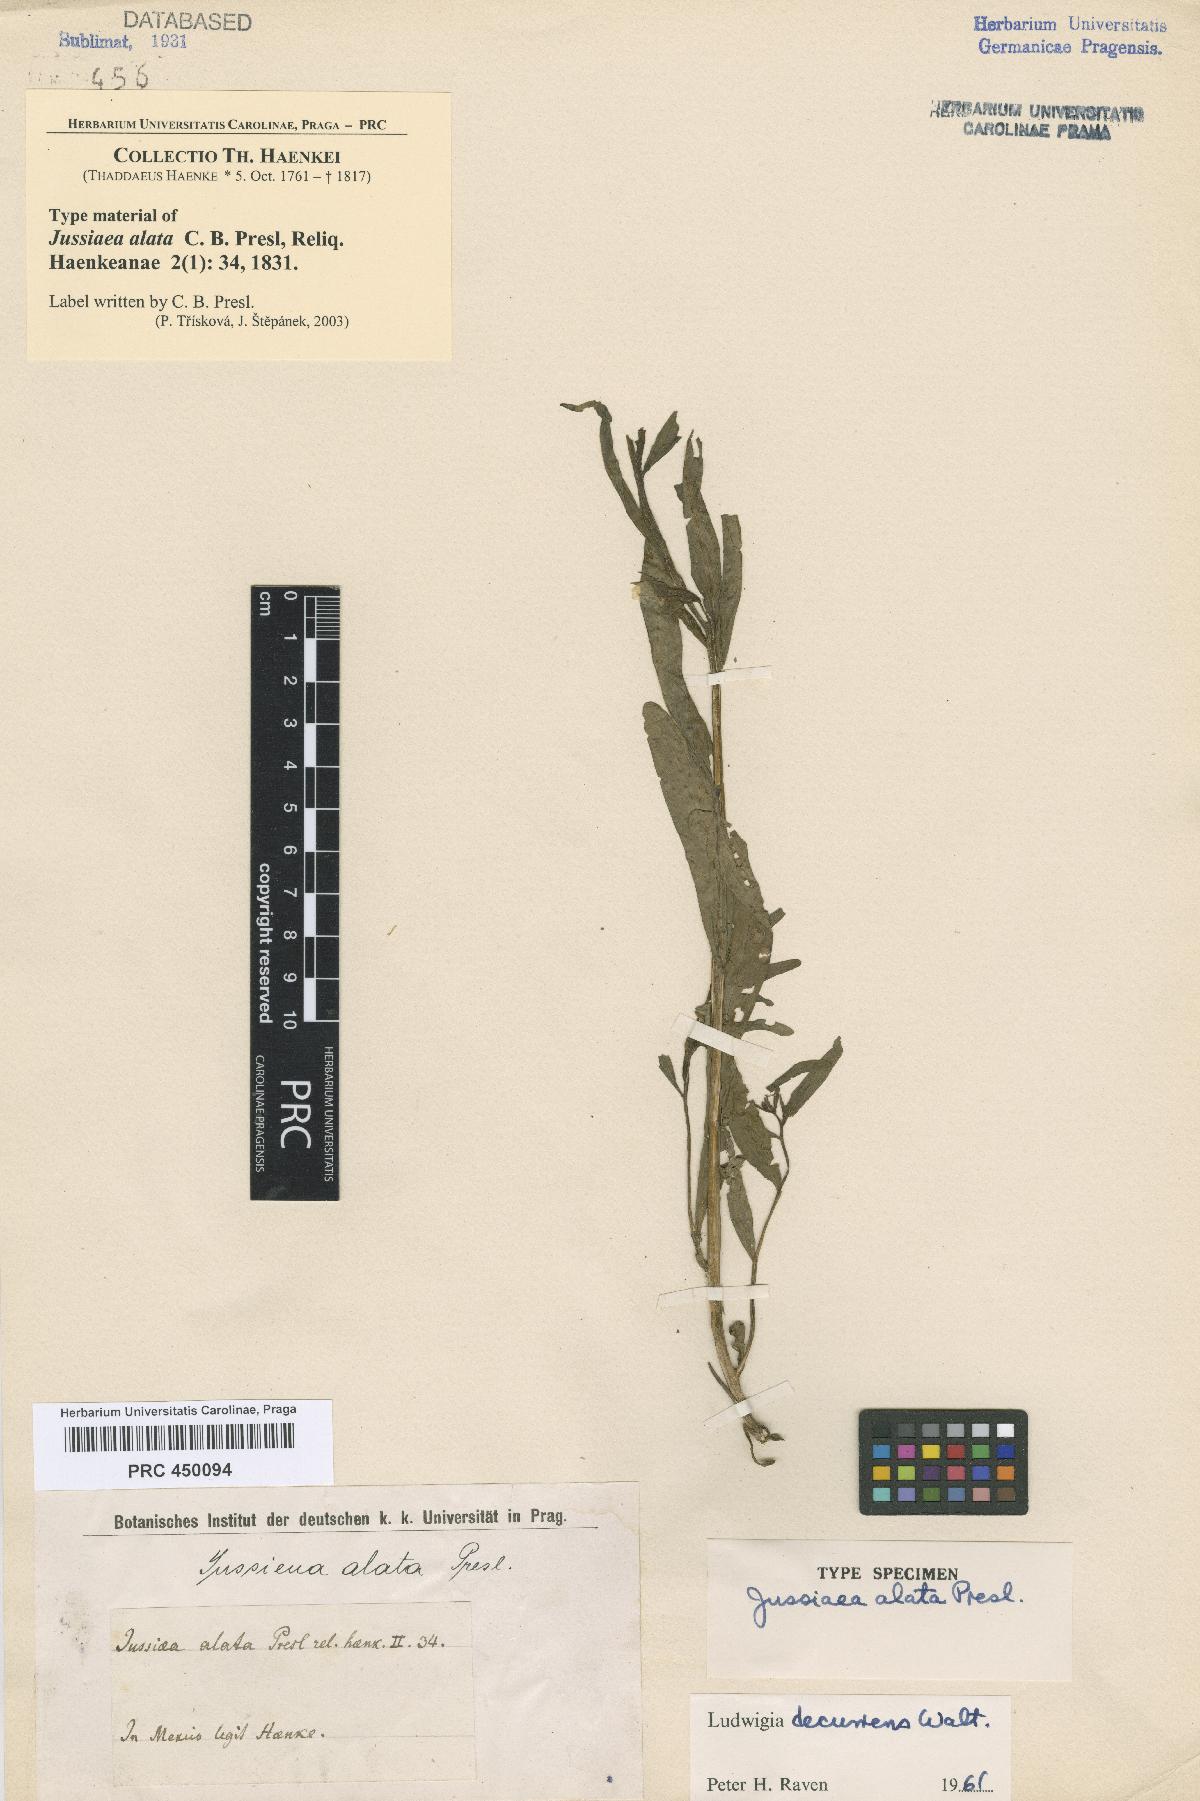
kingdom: Plantae
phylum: Tracheophyta
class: Magnoliopsida
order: Myrtales
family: Onagraceae
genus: Ludwigia
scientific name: Ludwigia decurrens
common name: Winged water-primrose
